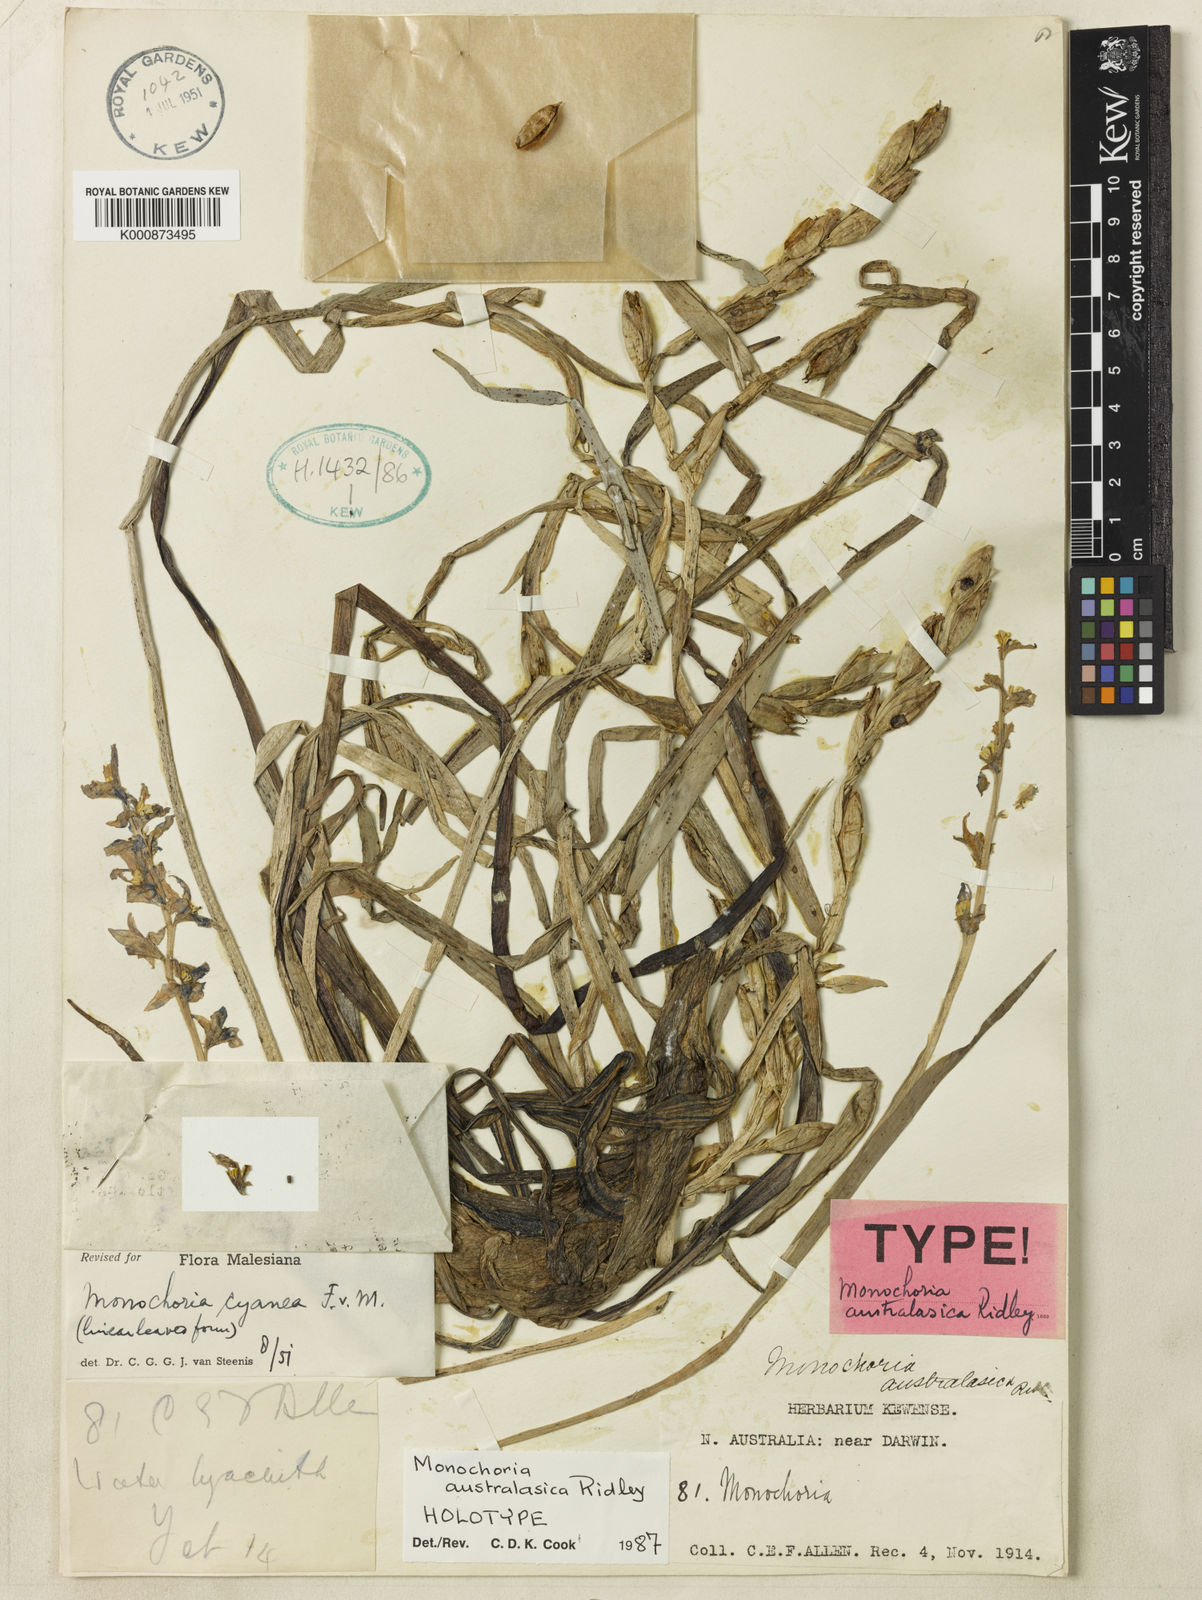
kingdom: Plantae
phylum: Tracheophyta
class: Liliopsida
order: Commelinales
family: Pontederiaceae
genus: Pontederia
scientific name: Pontederia australasica
